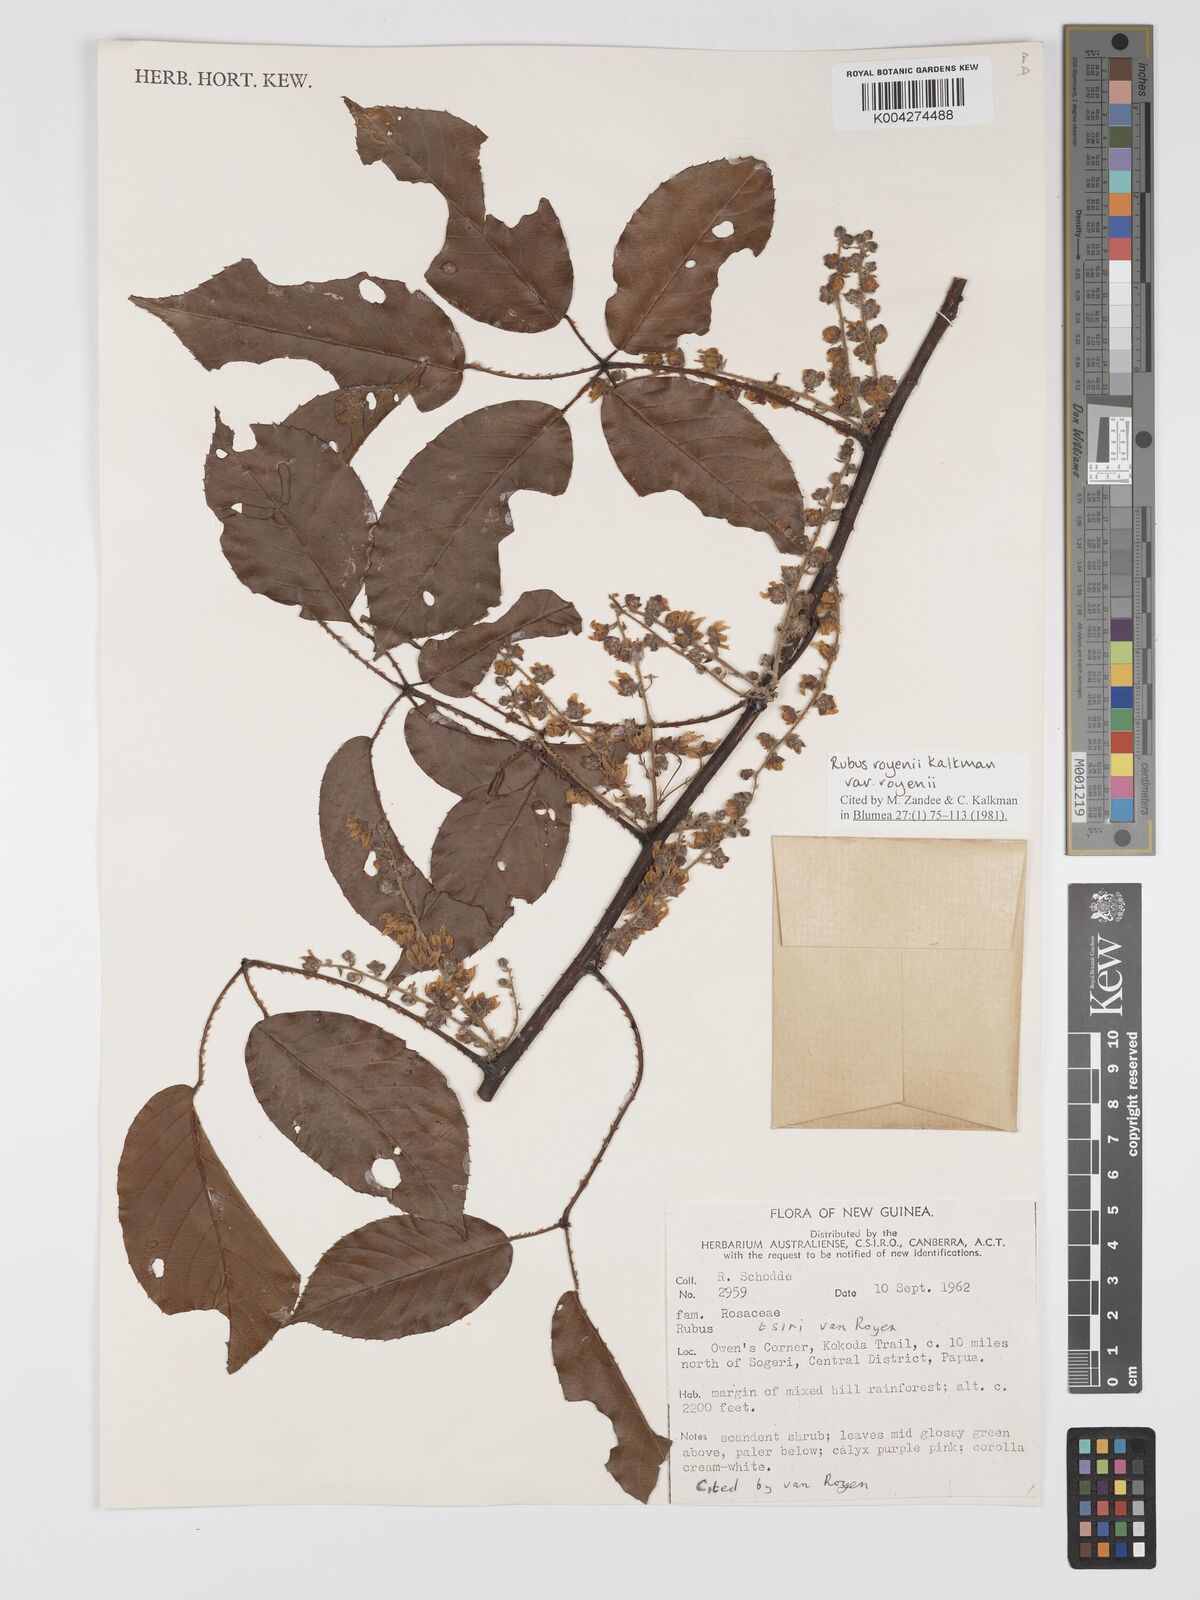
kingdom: Plantae
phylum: Tracheophyta
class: Magnoliopsida
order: Rosales
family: Rosaceae
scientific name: Rosaceae
